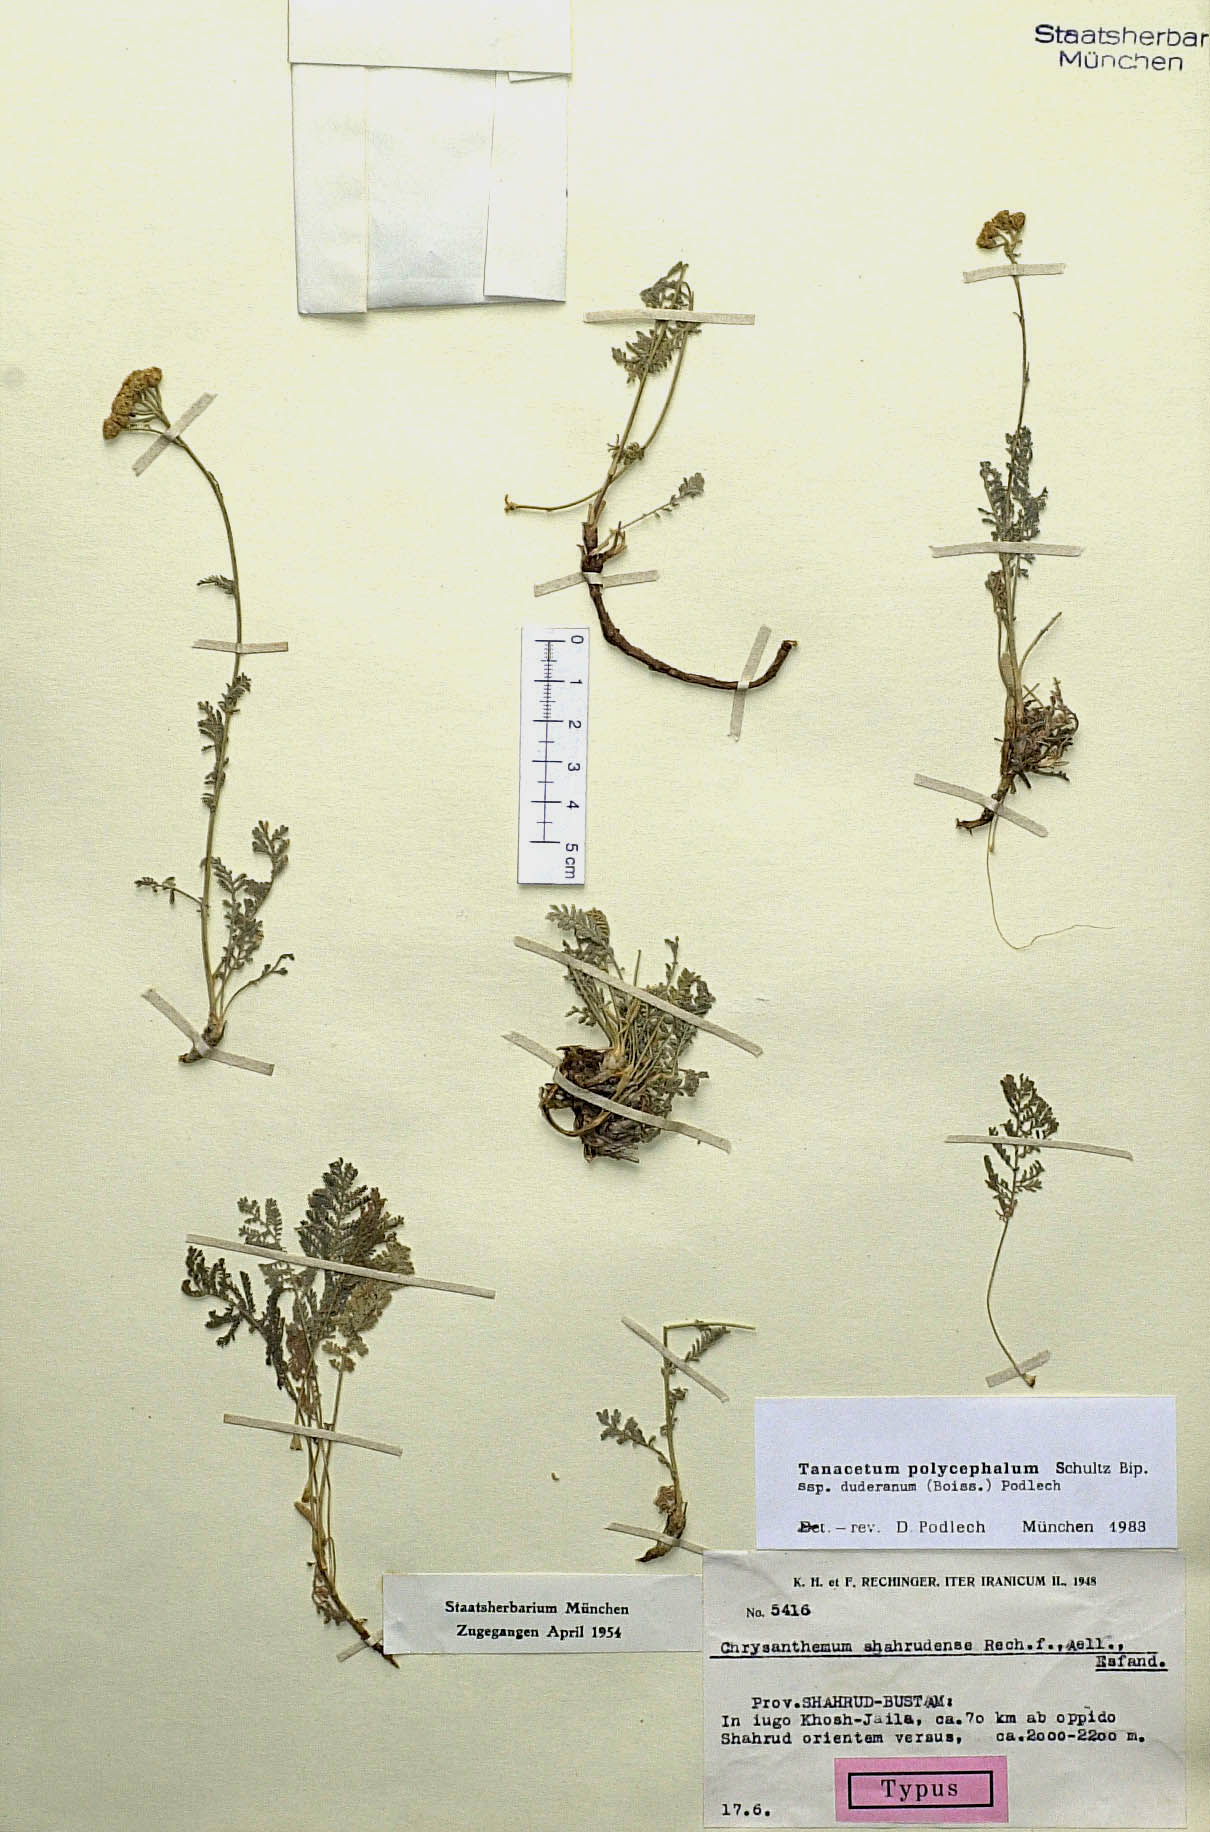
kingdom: Plantae
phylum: Tracheophyta
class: Magnoliopsida
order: Asterales
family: Asteraceae
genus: Tanacetum
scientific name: Tanacetum polycephalum
